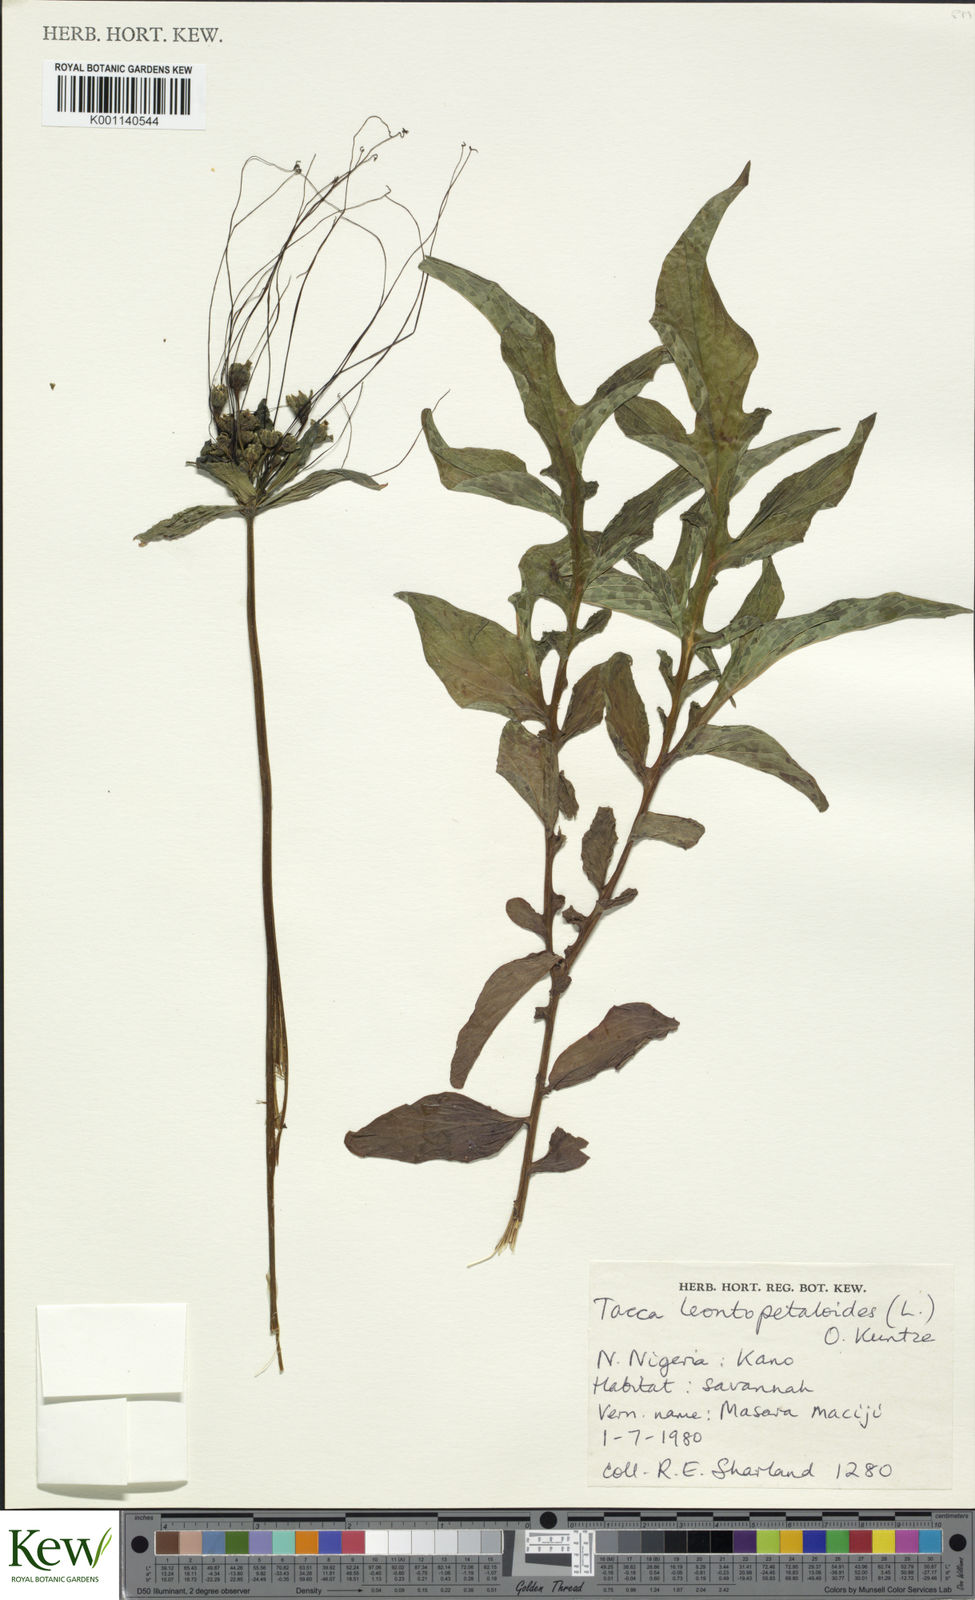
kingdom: Plantae
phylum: Tracheophyta
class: Liliopsida
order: Dioscoreales
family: Dioscoreaceae
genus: Tacca
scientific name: Tacca leontopetaloides
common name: Arrowroot
